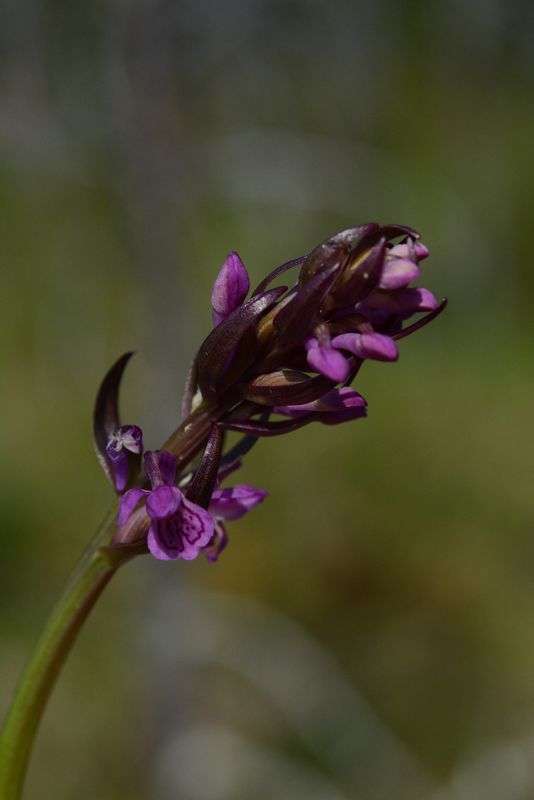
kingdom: Plantae
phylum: Tracheophyta
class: Liliopsida
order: Asparagales
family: Orchidaceae
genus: Dactylorhiza
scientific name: Dactylorhiza incarnata
